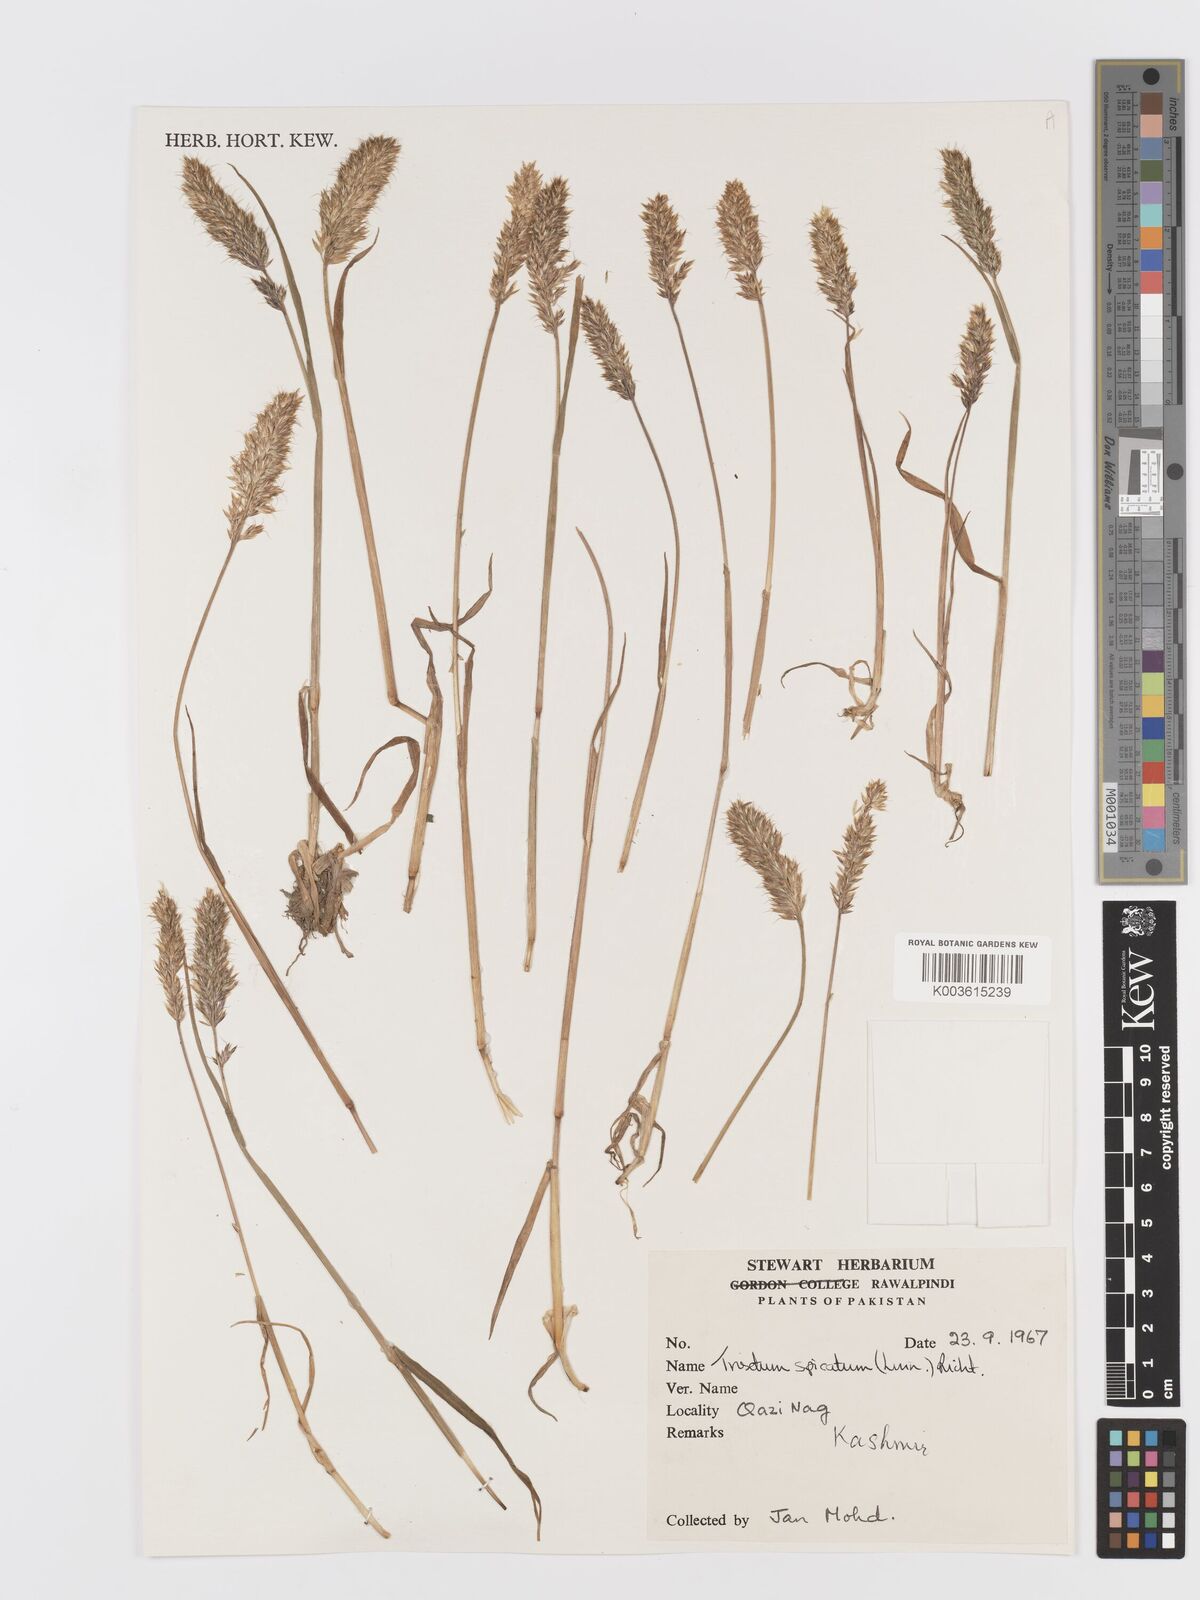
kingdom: Plantae
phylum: Tracheophyta
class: Liliopsida
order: Poales
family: Poaceae
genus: Koeleria
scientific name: Koeleria spicata
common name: Mountain trisetum
